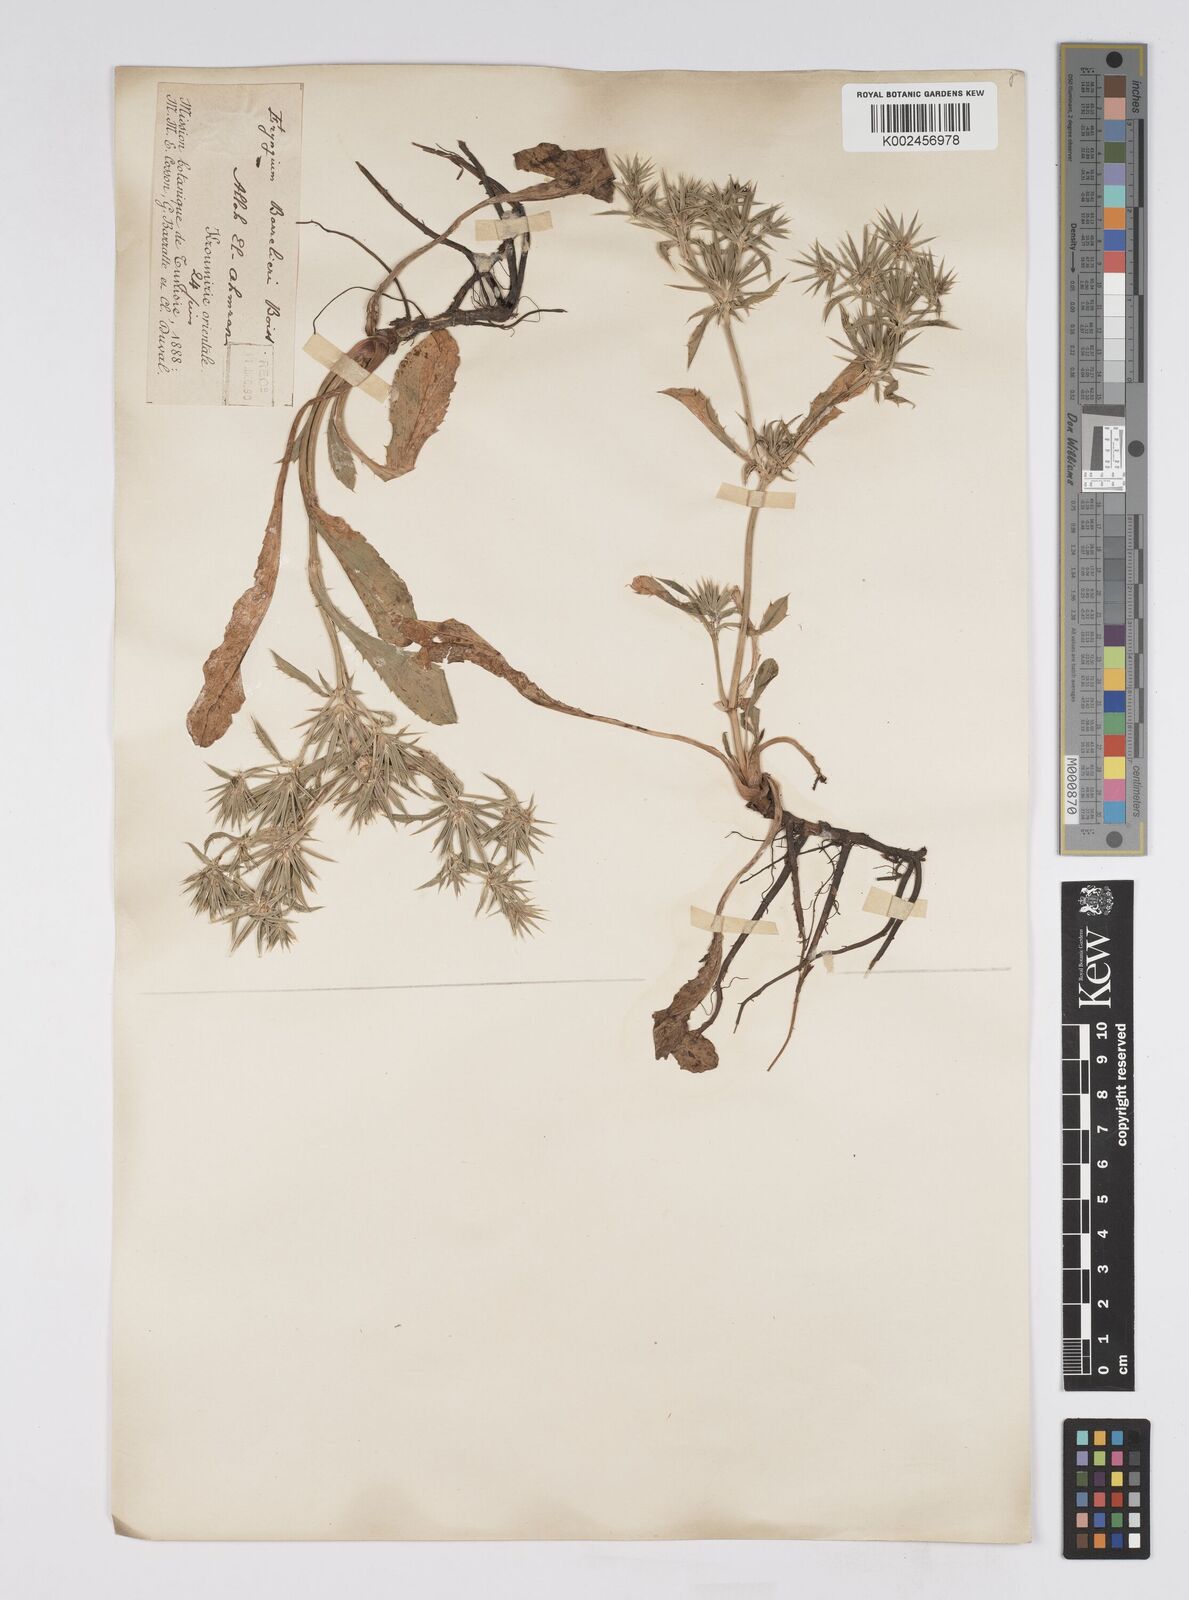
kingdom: Plantae
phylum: Tracheophyta
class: Magnoliopsida
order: Apiales
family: Apiaceae
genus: Eryngium
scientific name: Eryngium pusillum
